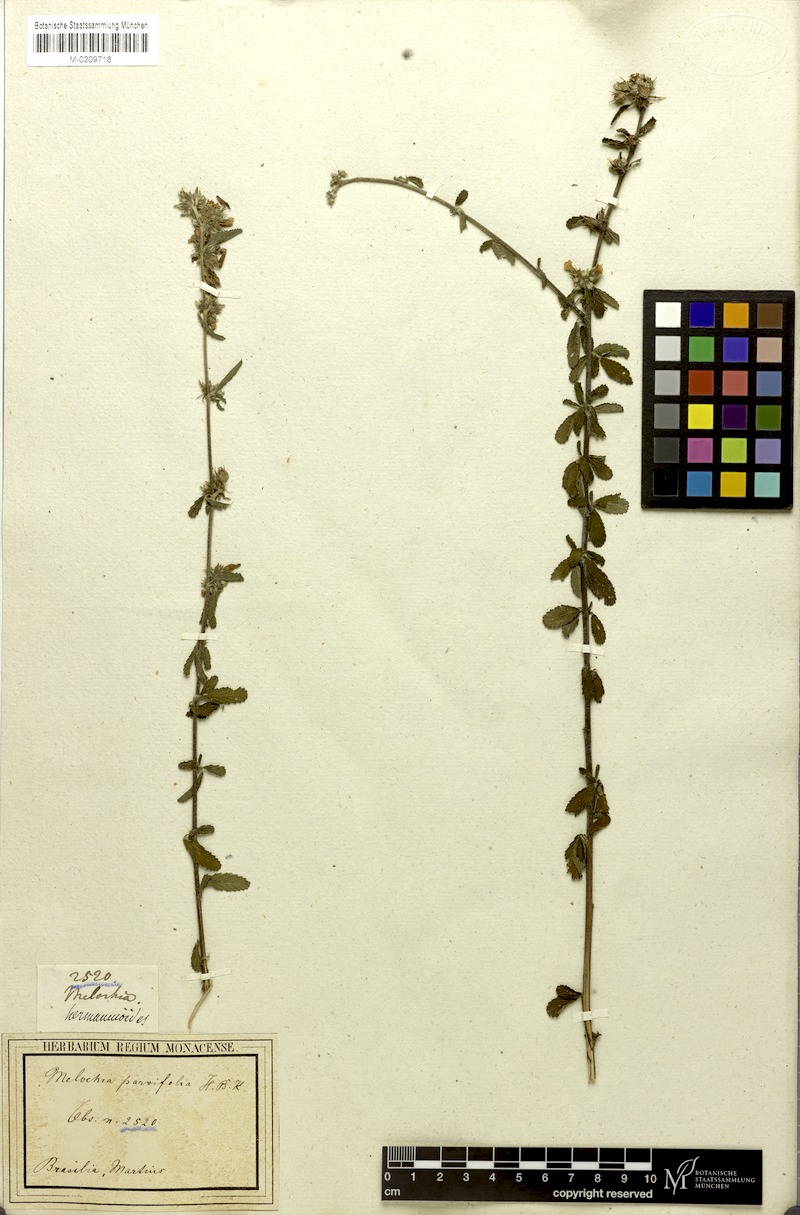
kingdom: Plantae
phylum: Tracheophyta
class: Magnoliopsida
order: Malvales
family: Malvaceae
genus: Melochia
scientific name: Melochia parvifolia
